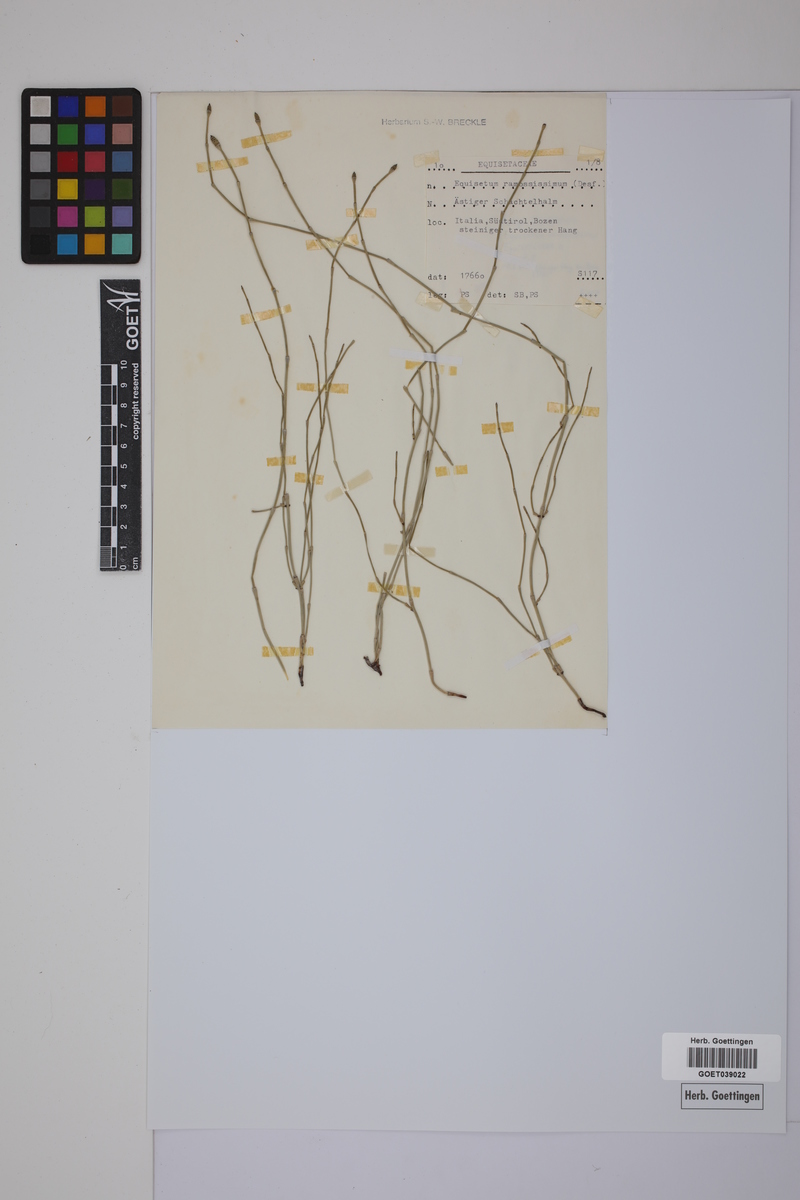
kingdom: Plantae
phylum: Tracheophyta
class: Polypodiopsida
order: Equisetales
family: Equisetaceae
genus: Equisetum
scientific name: Equisetum giganteum
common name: Giant horsetail
